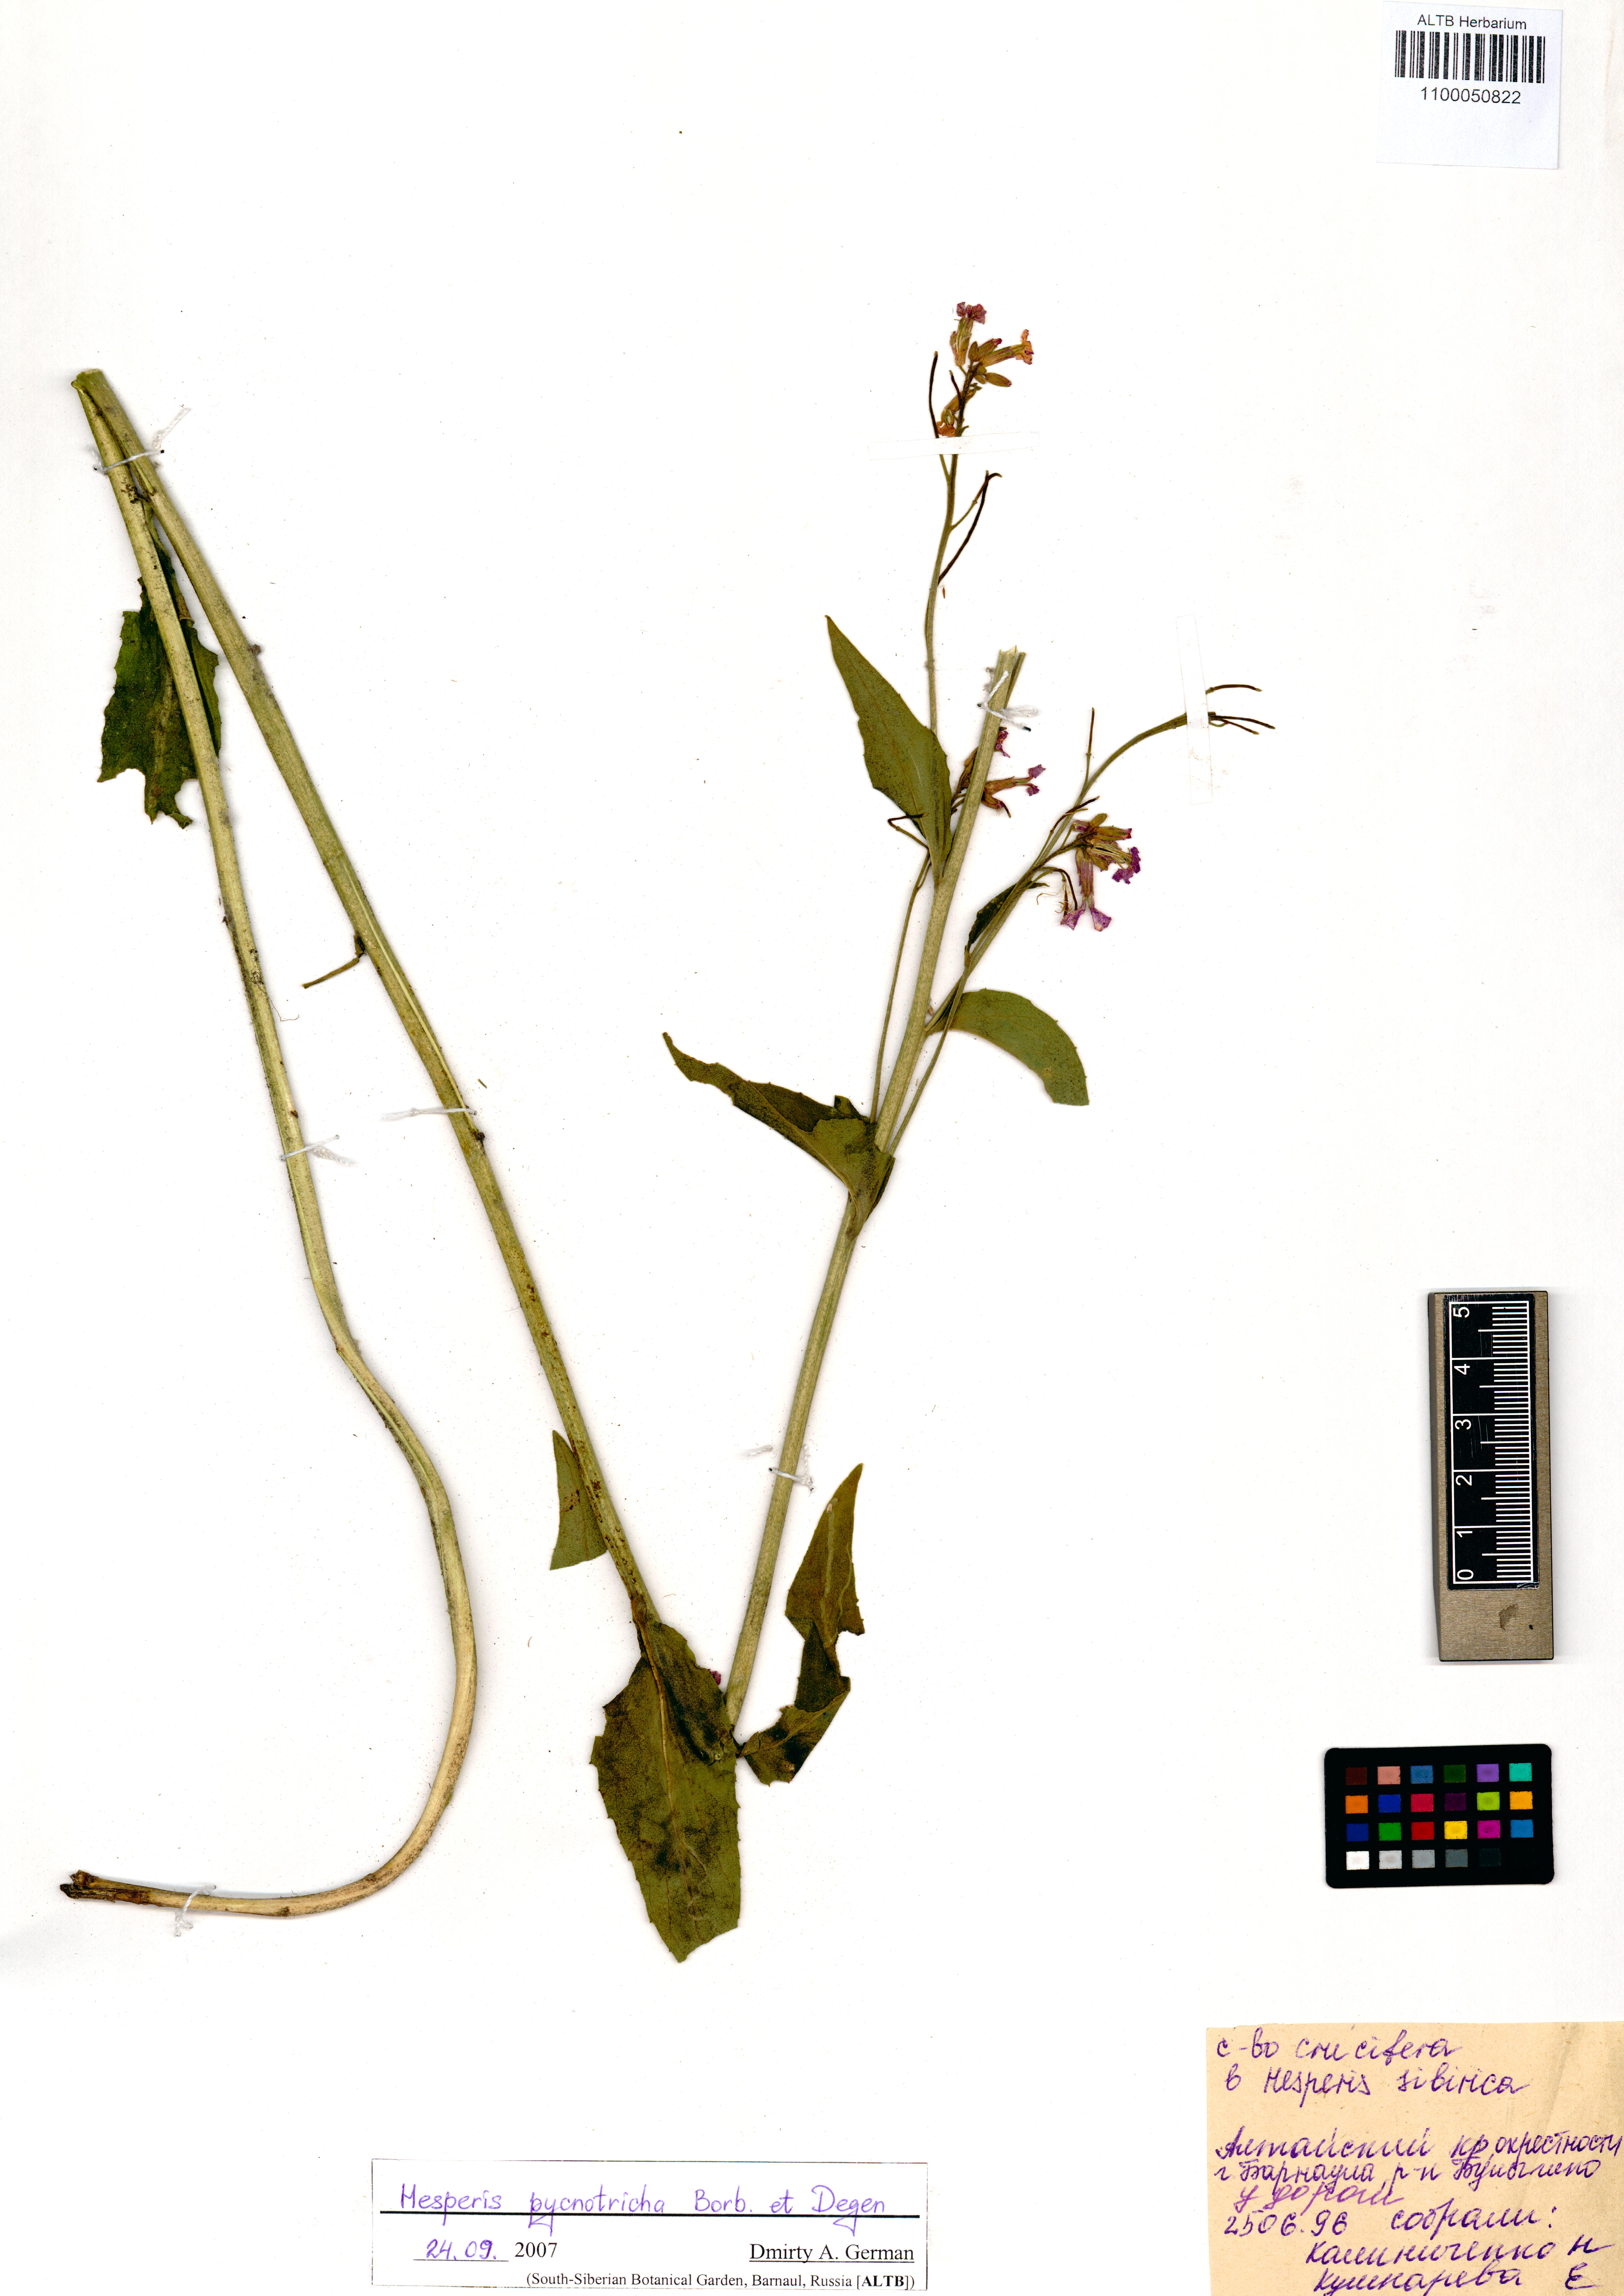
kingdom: Plantae
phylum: Tracheophyta
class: Magnoliopsida
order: Brassicales
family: Brassicaceae
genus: Hesperis
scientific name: Hesperis sibirica
